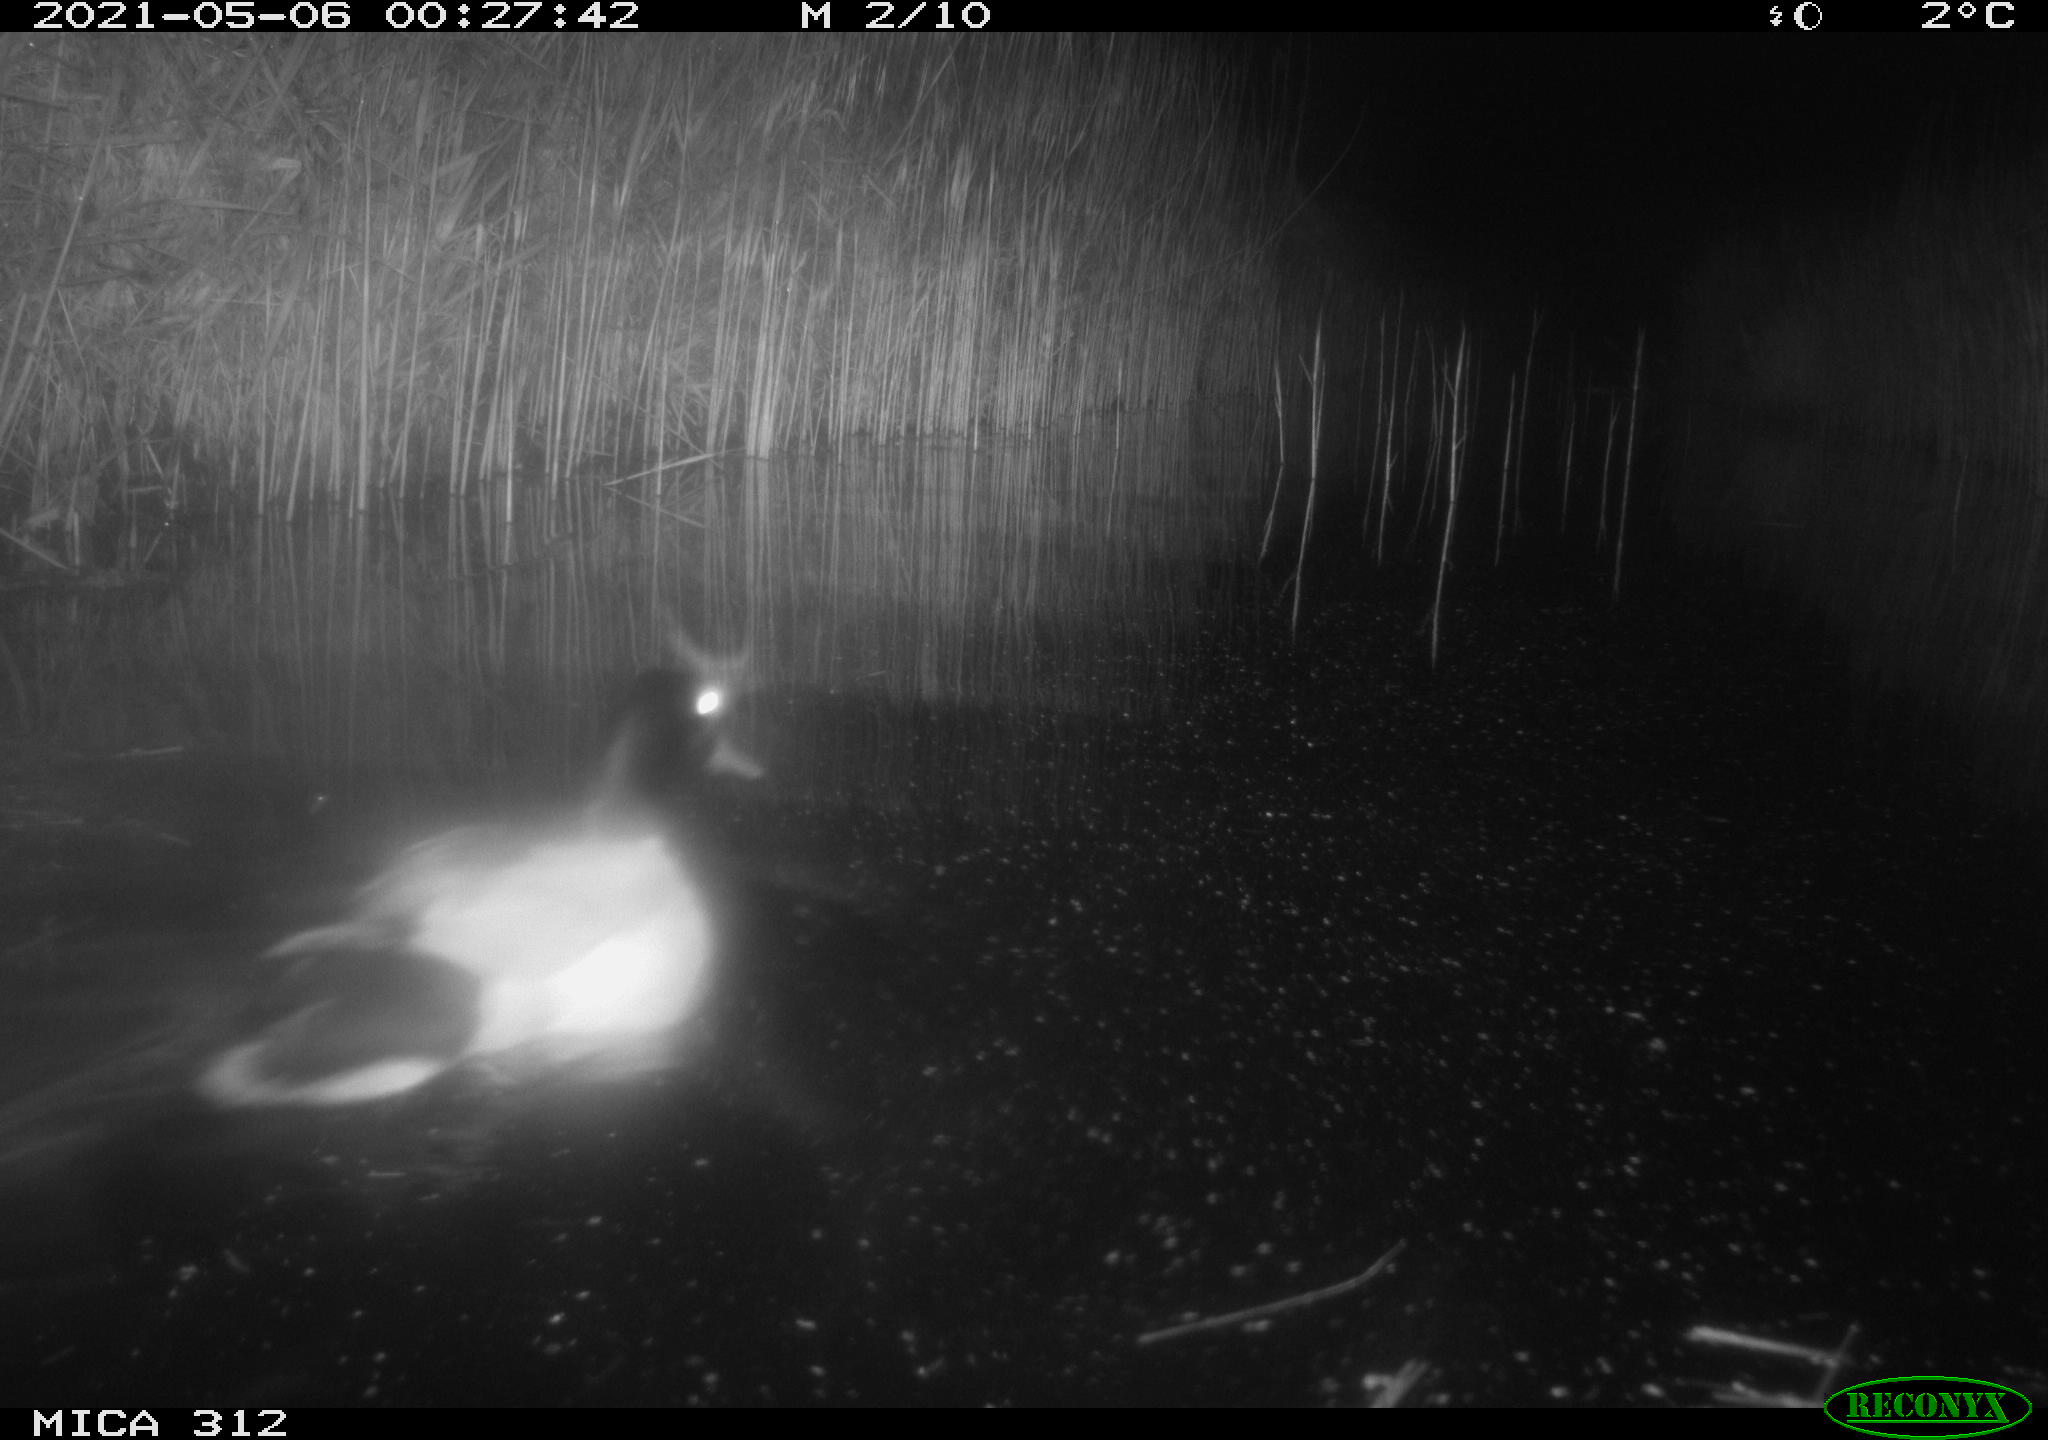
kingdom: Animalia
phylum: Chordata
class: Mammalia
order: Rodentia
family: Muridae
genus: Rattus
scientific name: Rattus norvegicus
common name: Brown rat
